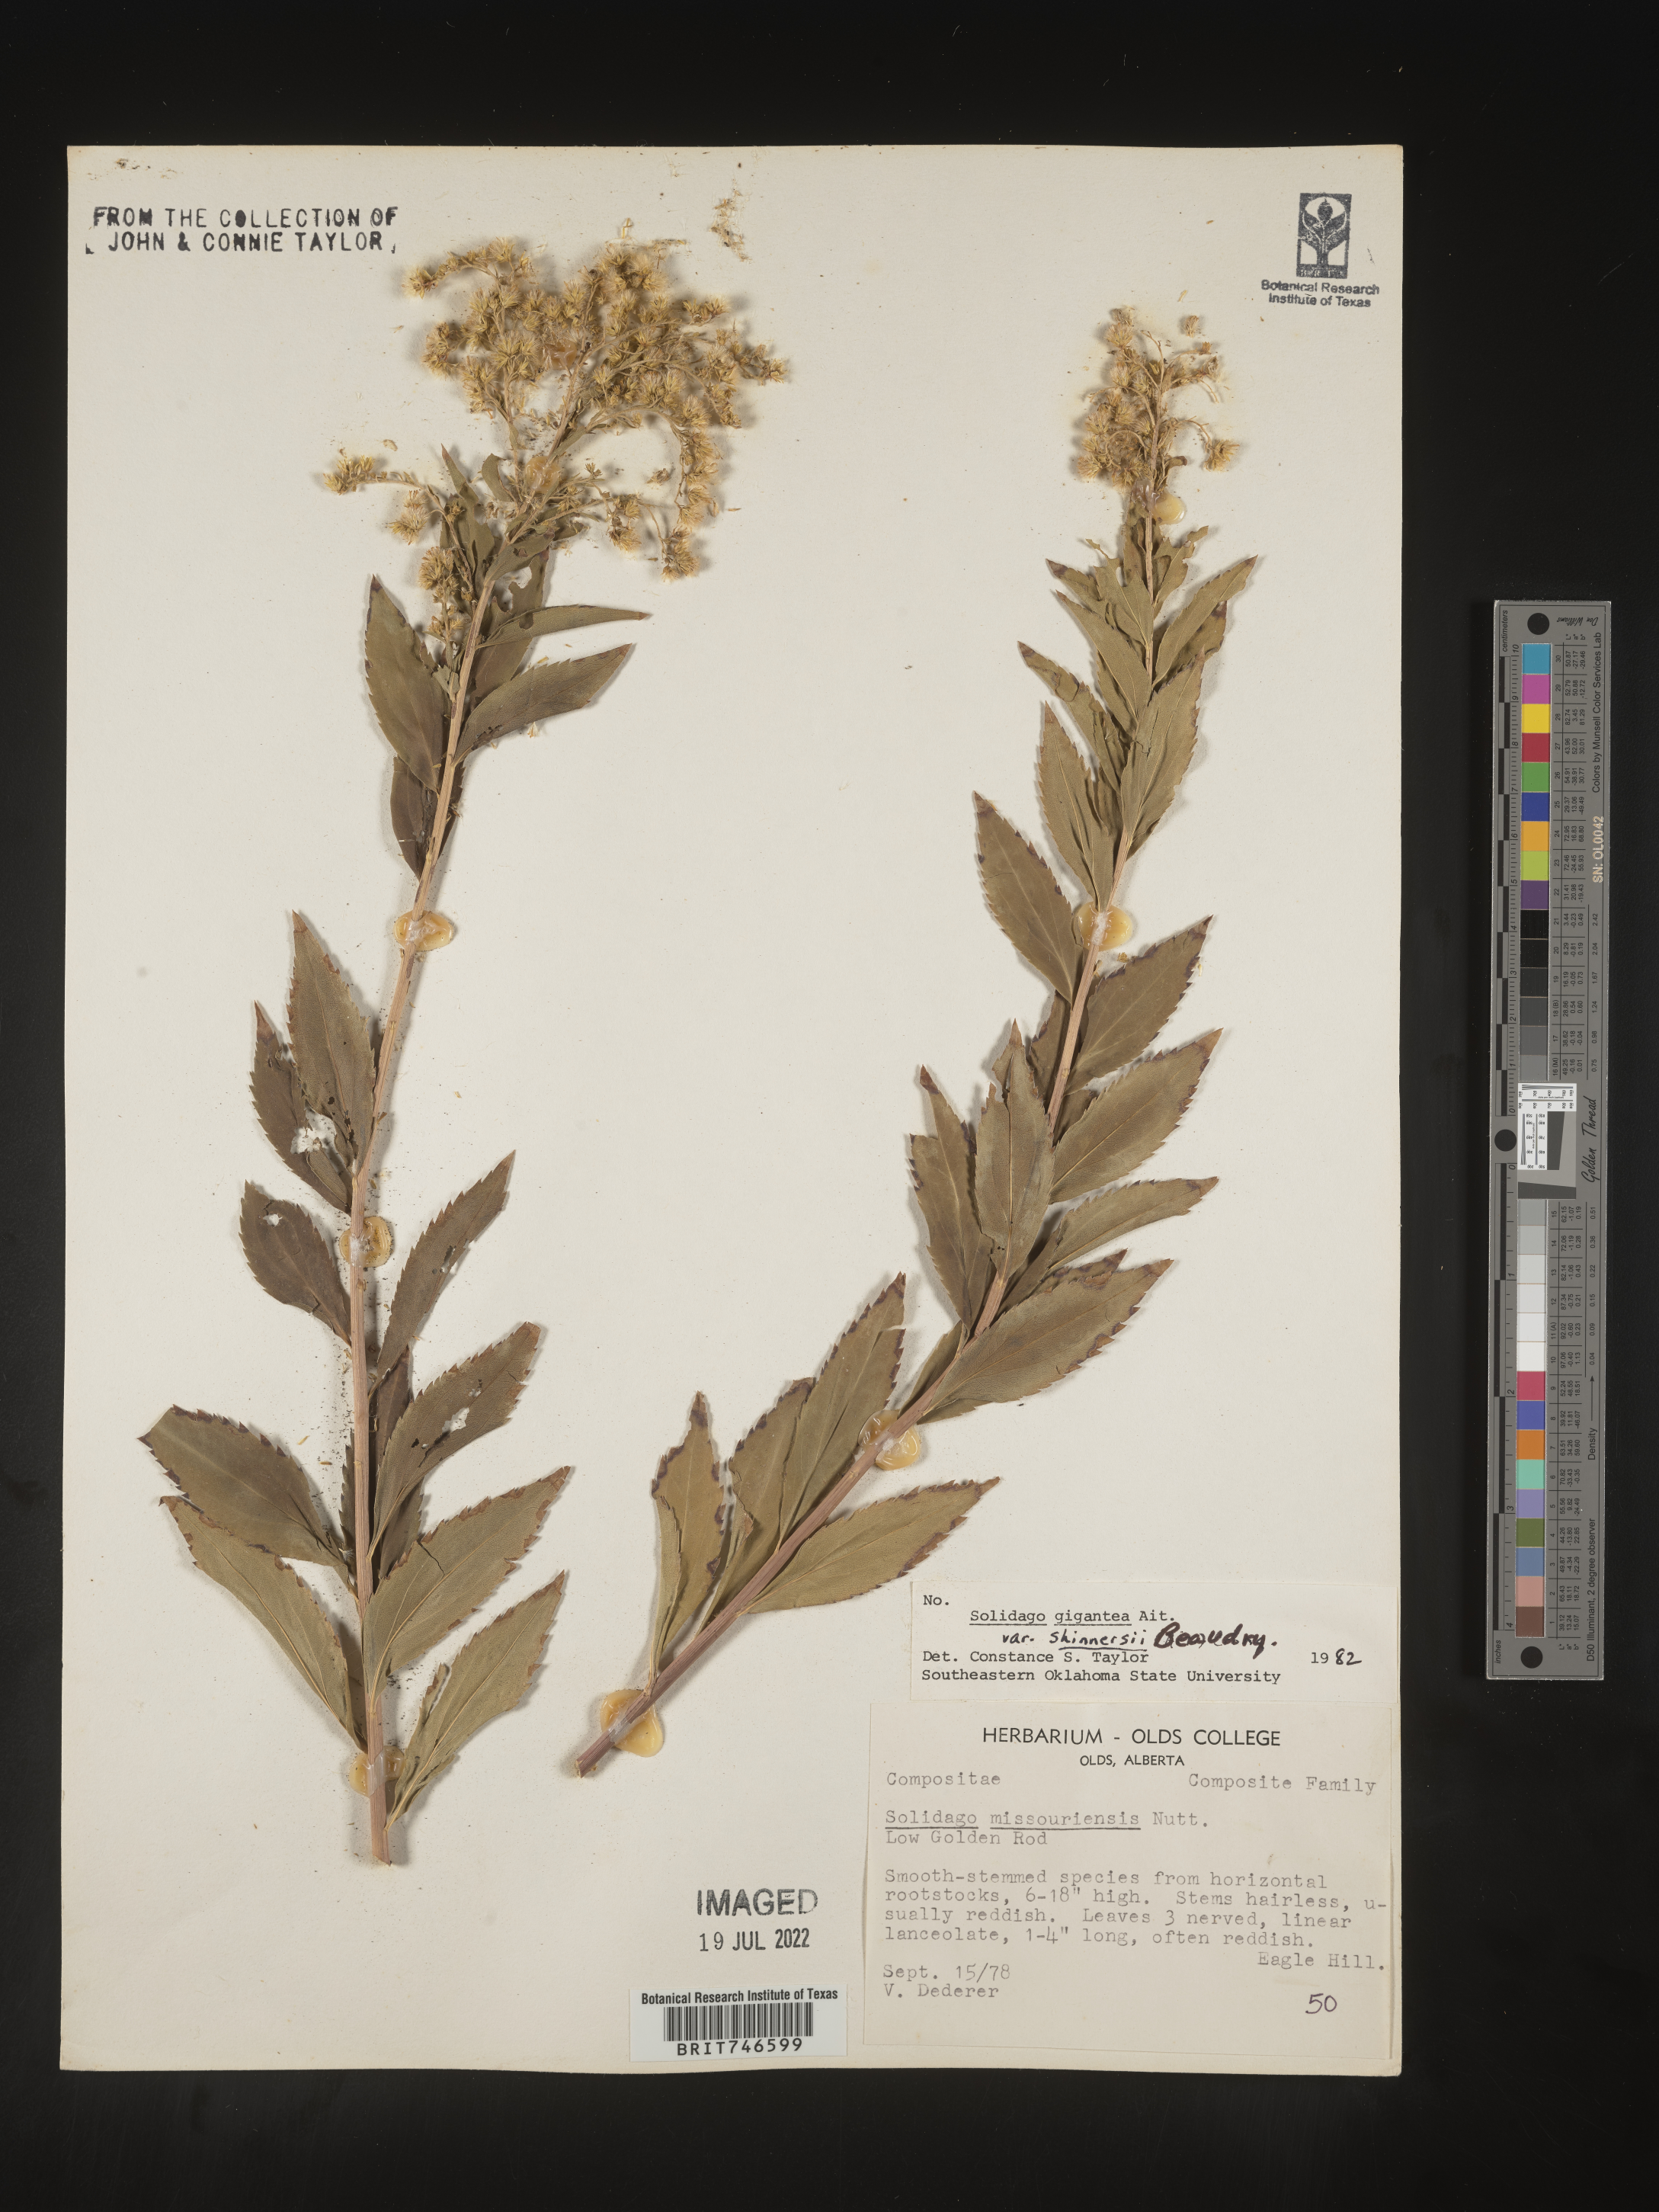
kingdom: Plantae
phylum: Tracheophyta
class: Magnoliopsida
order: Asterales
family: Asteraceae
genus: Solidago
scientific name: Solidago gigantea
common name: Giant goldenrod
